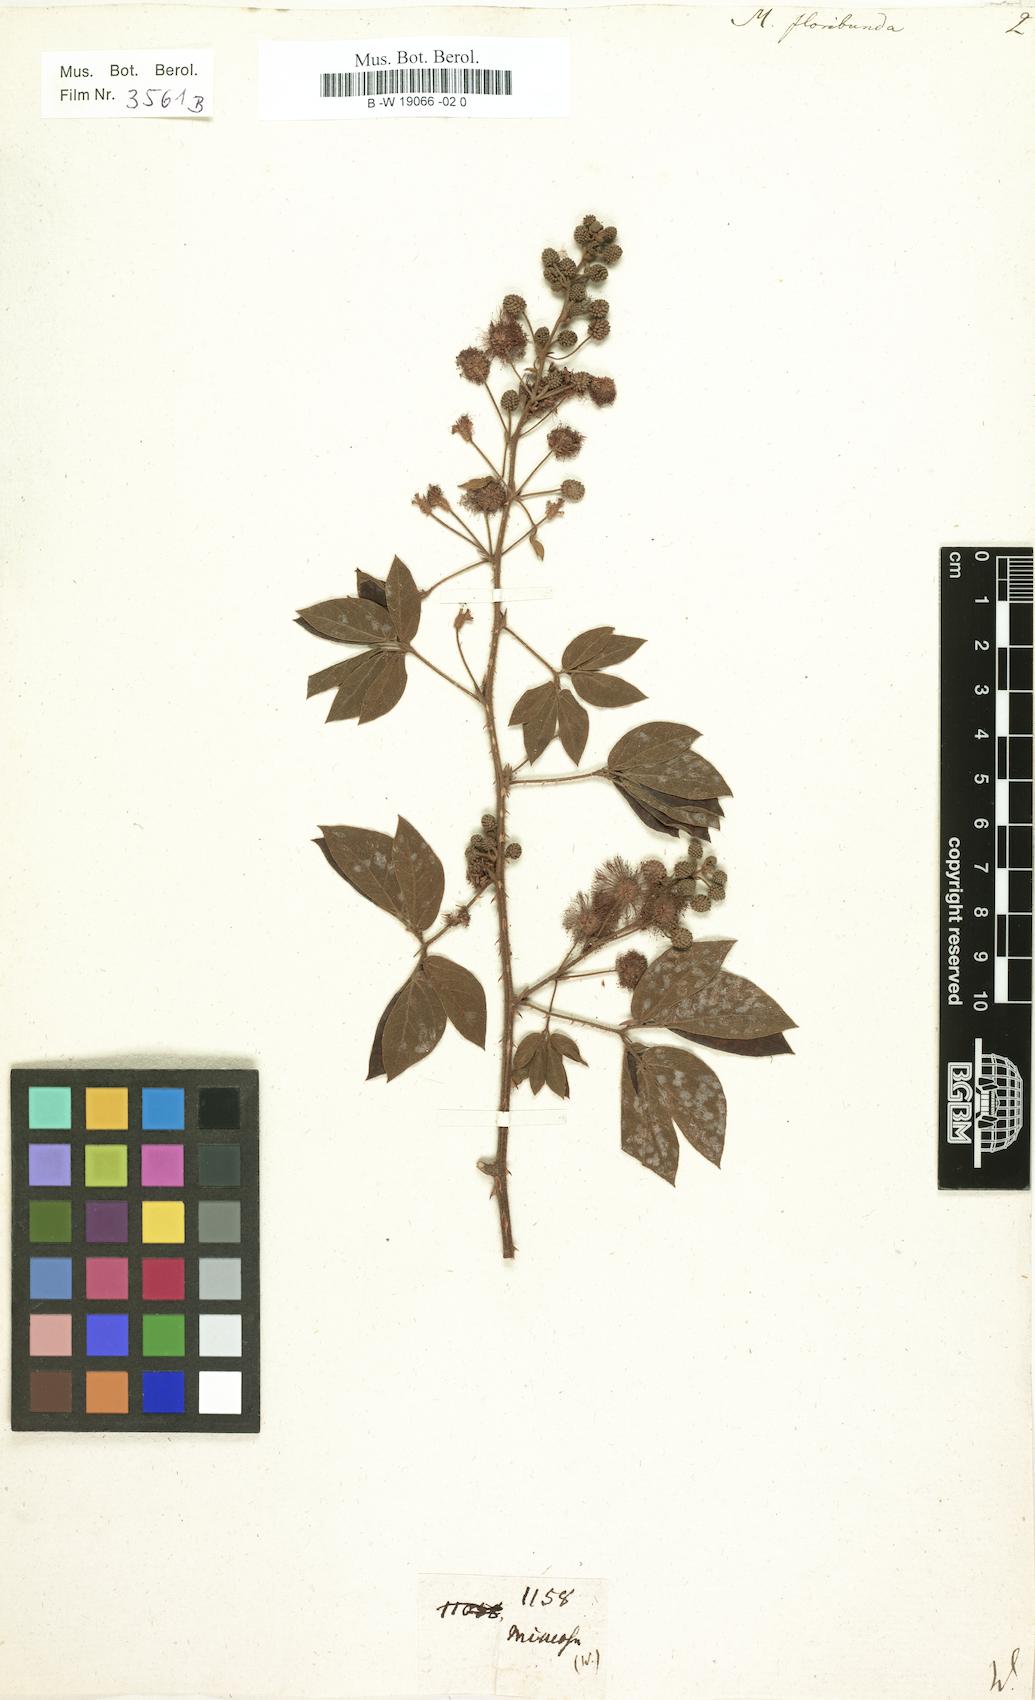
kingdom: Plantae
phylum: Tracheophyta
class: Magnoliopsida
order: Fabales
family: Fabaceae
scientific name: Fabaceae
